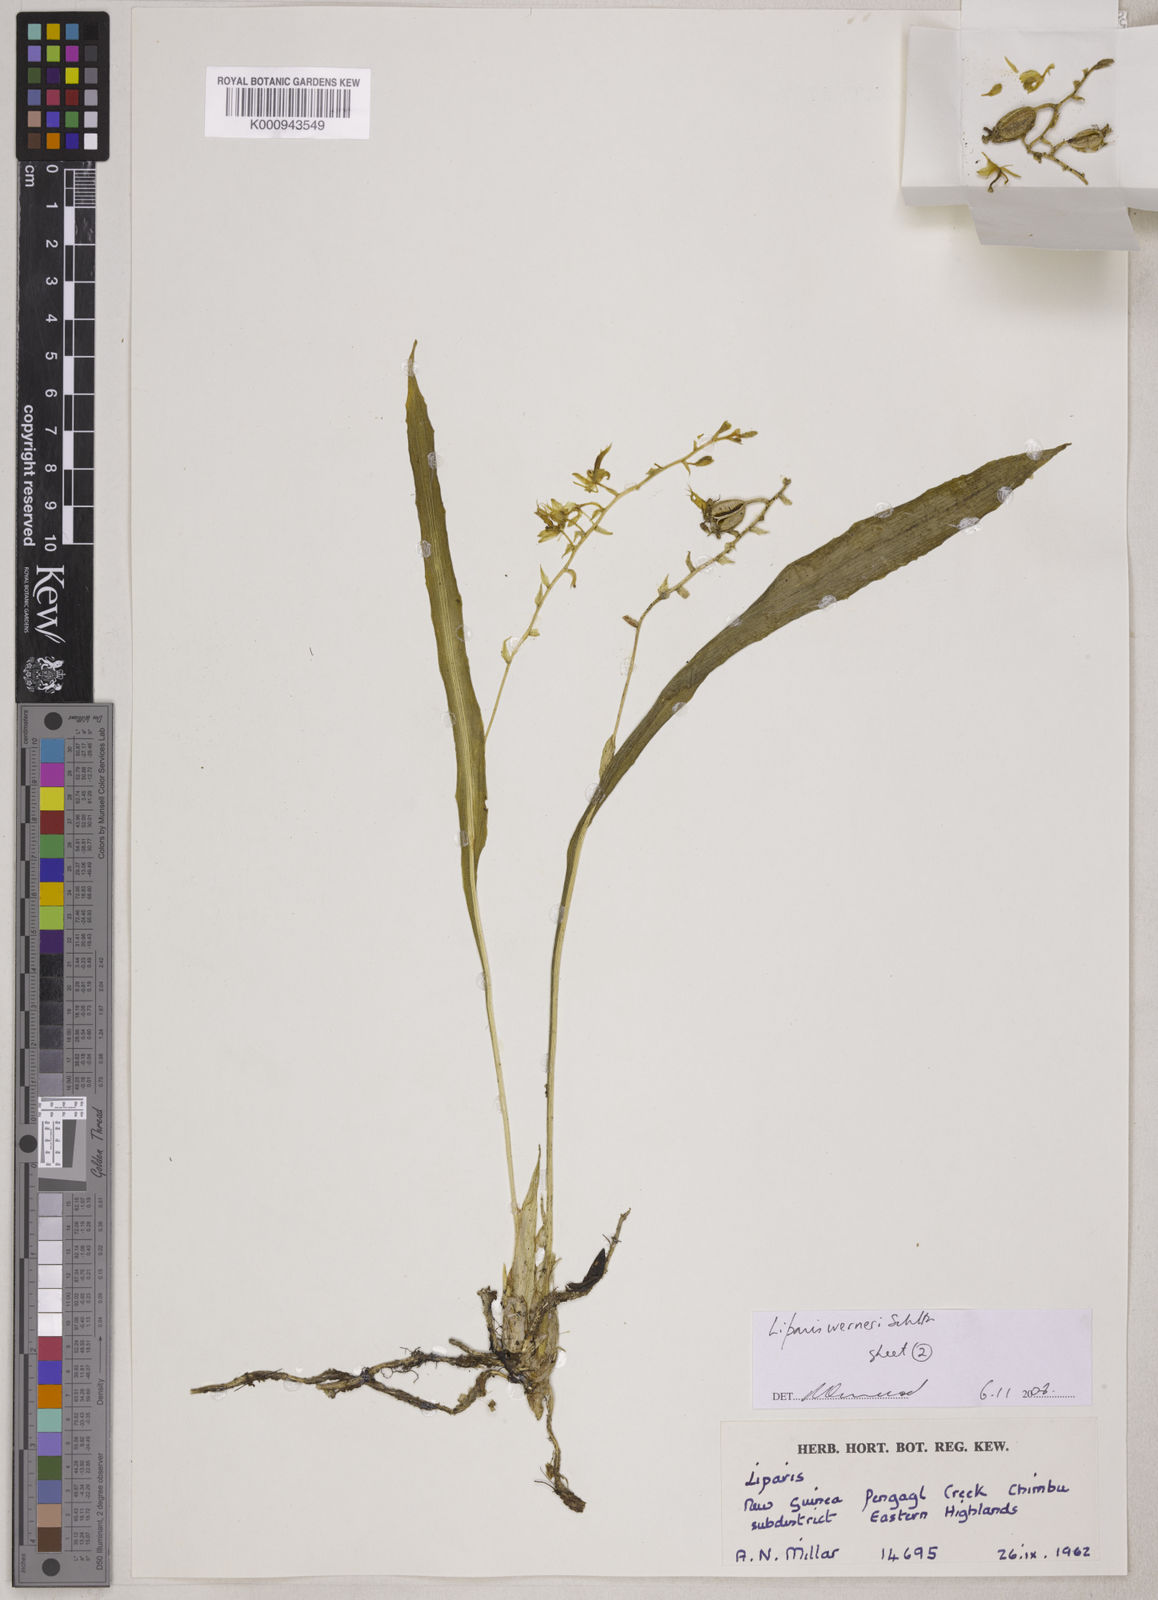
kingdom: Plantae
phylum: Tracheophyta
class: Liliopsida
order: Asparagales
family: Orchidaceae
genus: Liparis
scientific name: Liparis werneri
